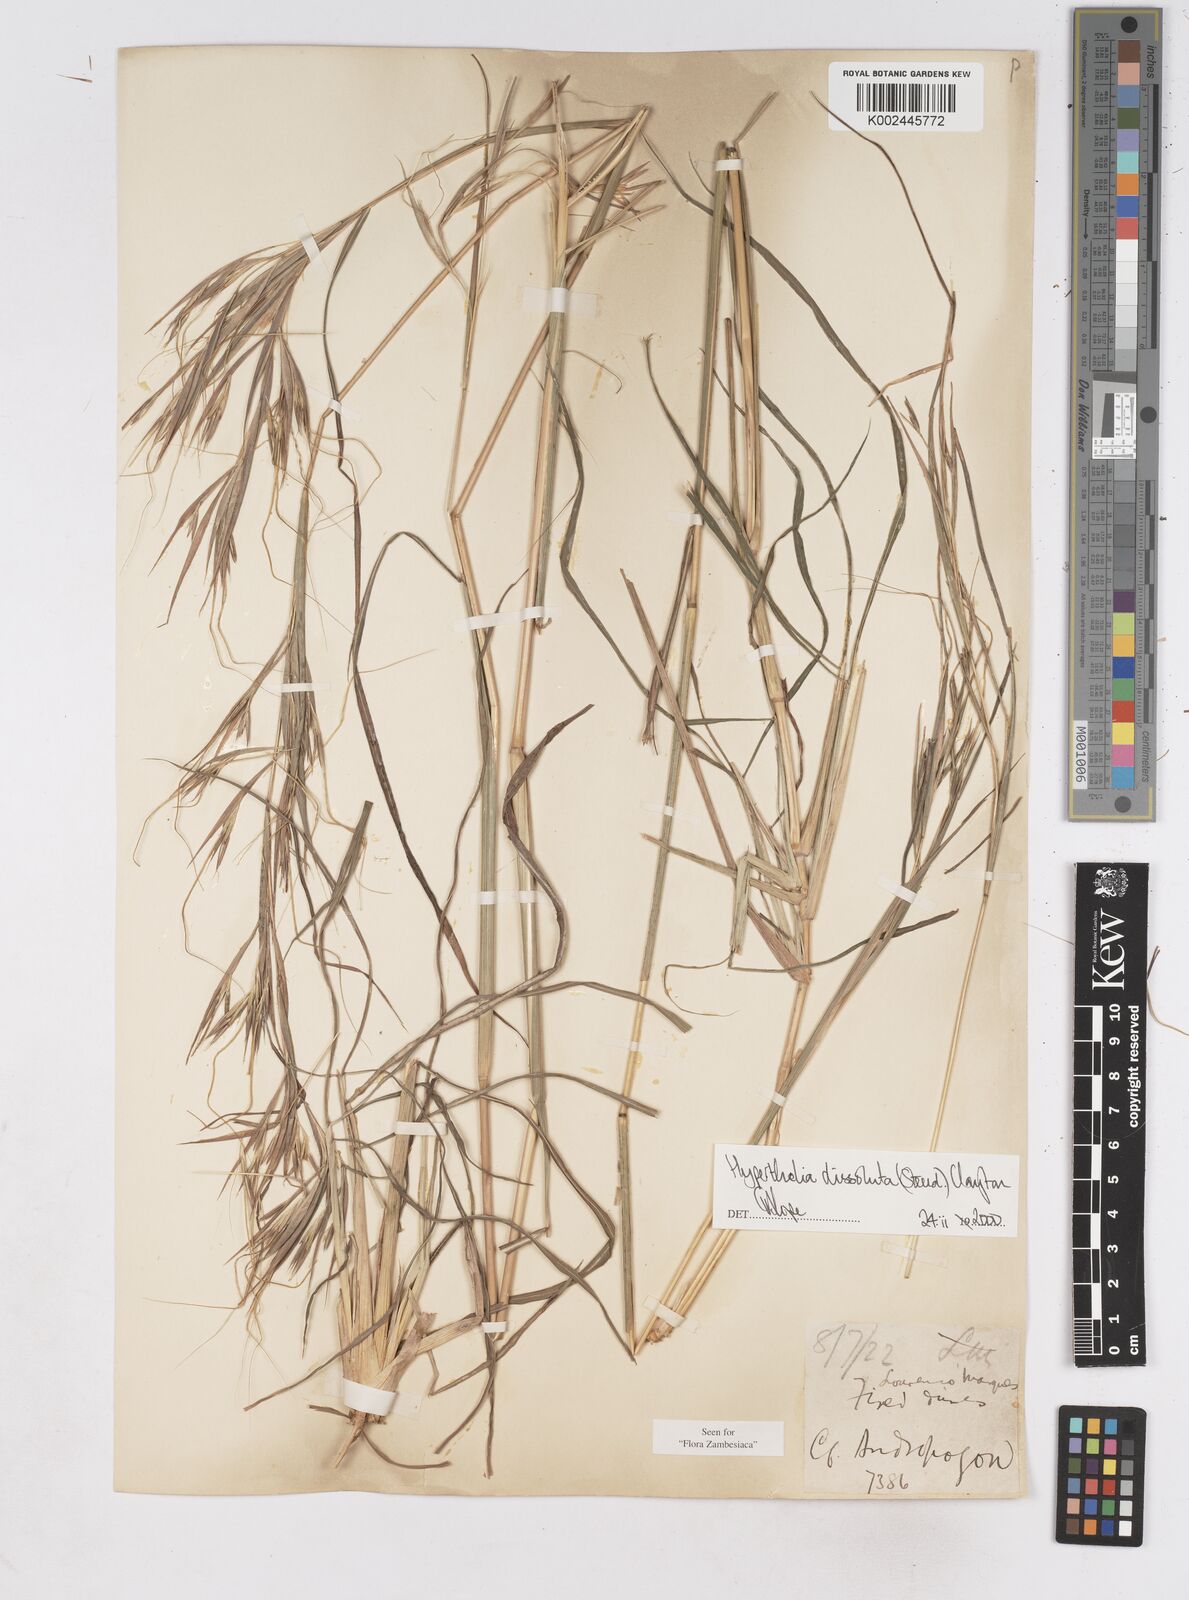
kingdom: Plantae
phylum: Tracheophyta
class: Liliopsida
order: Poales
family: Poaceae
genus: Hyperthelia
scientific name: Hyperthelia dissoluta
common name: Yellow thatching grass
